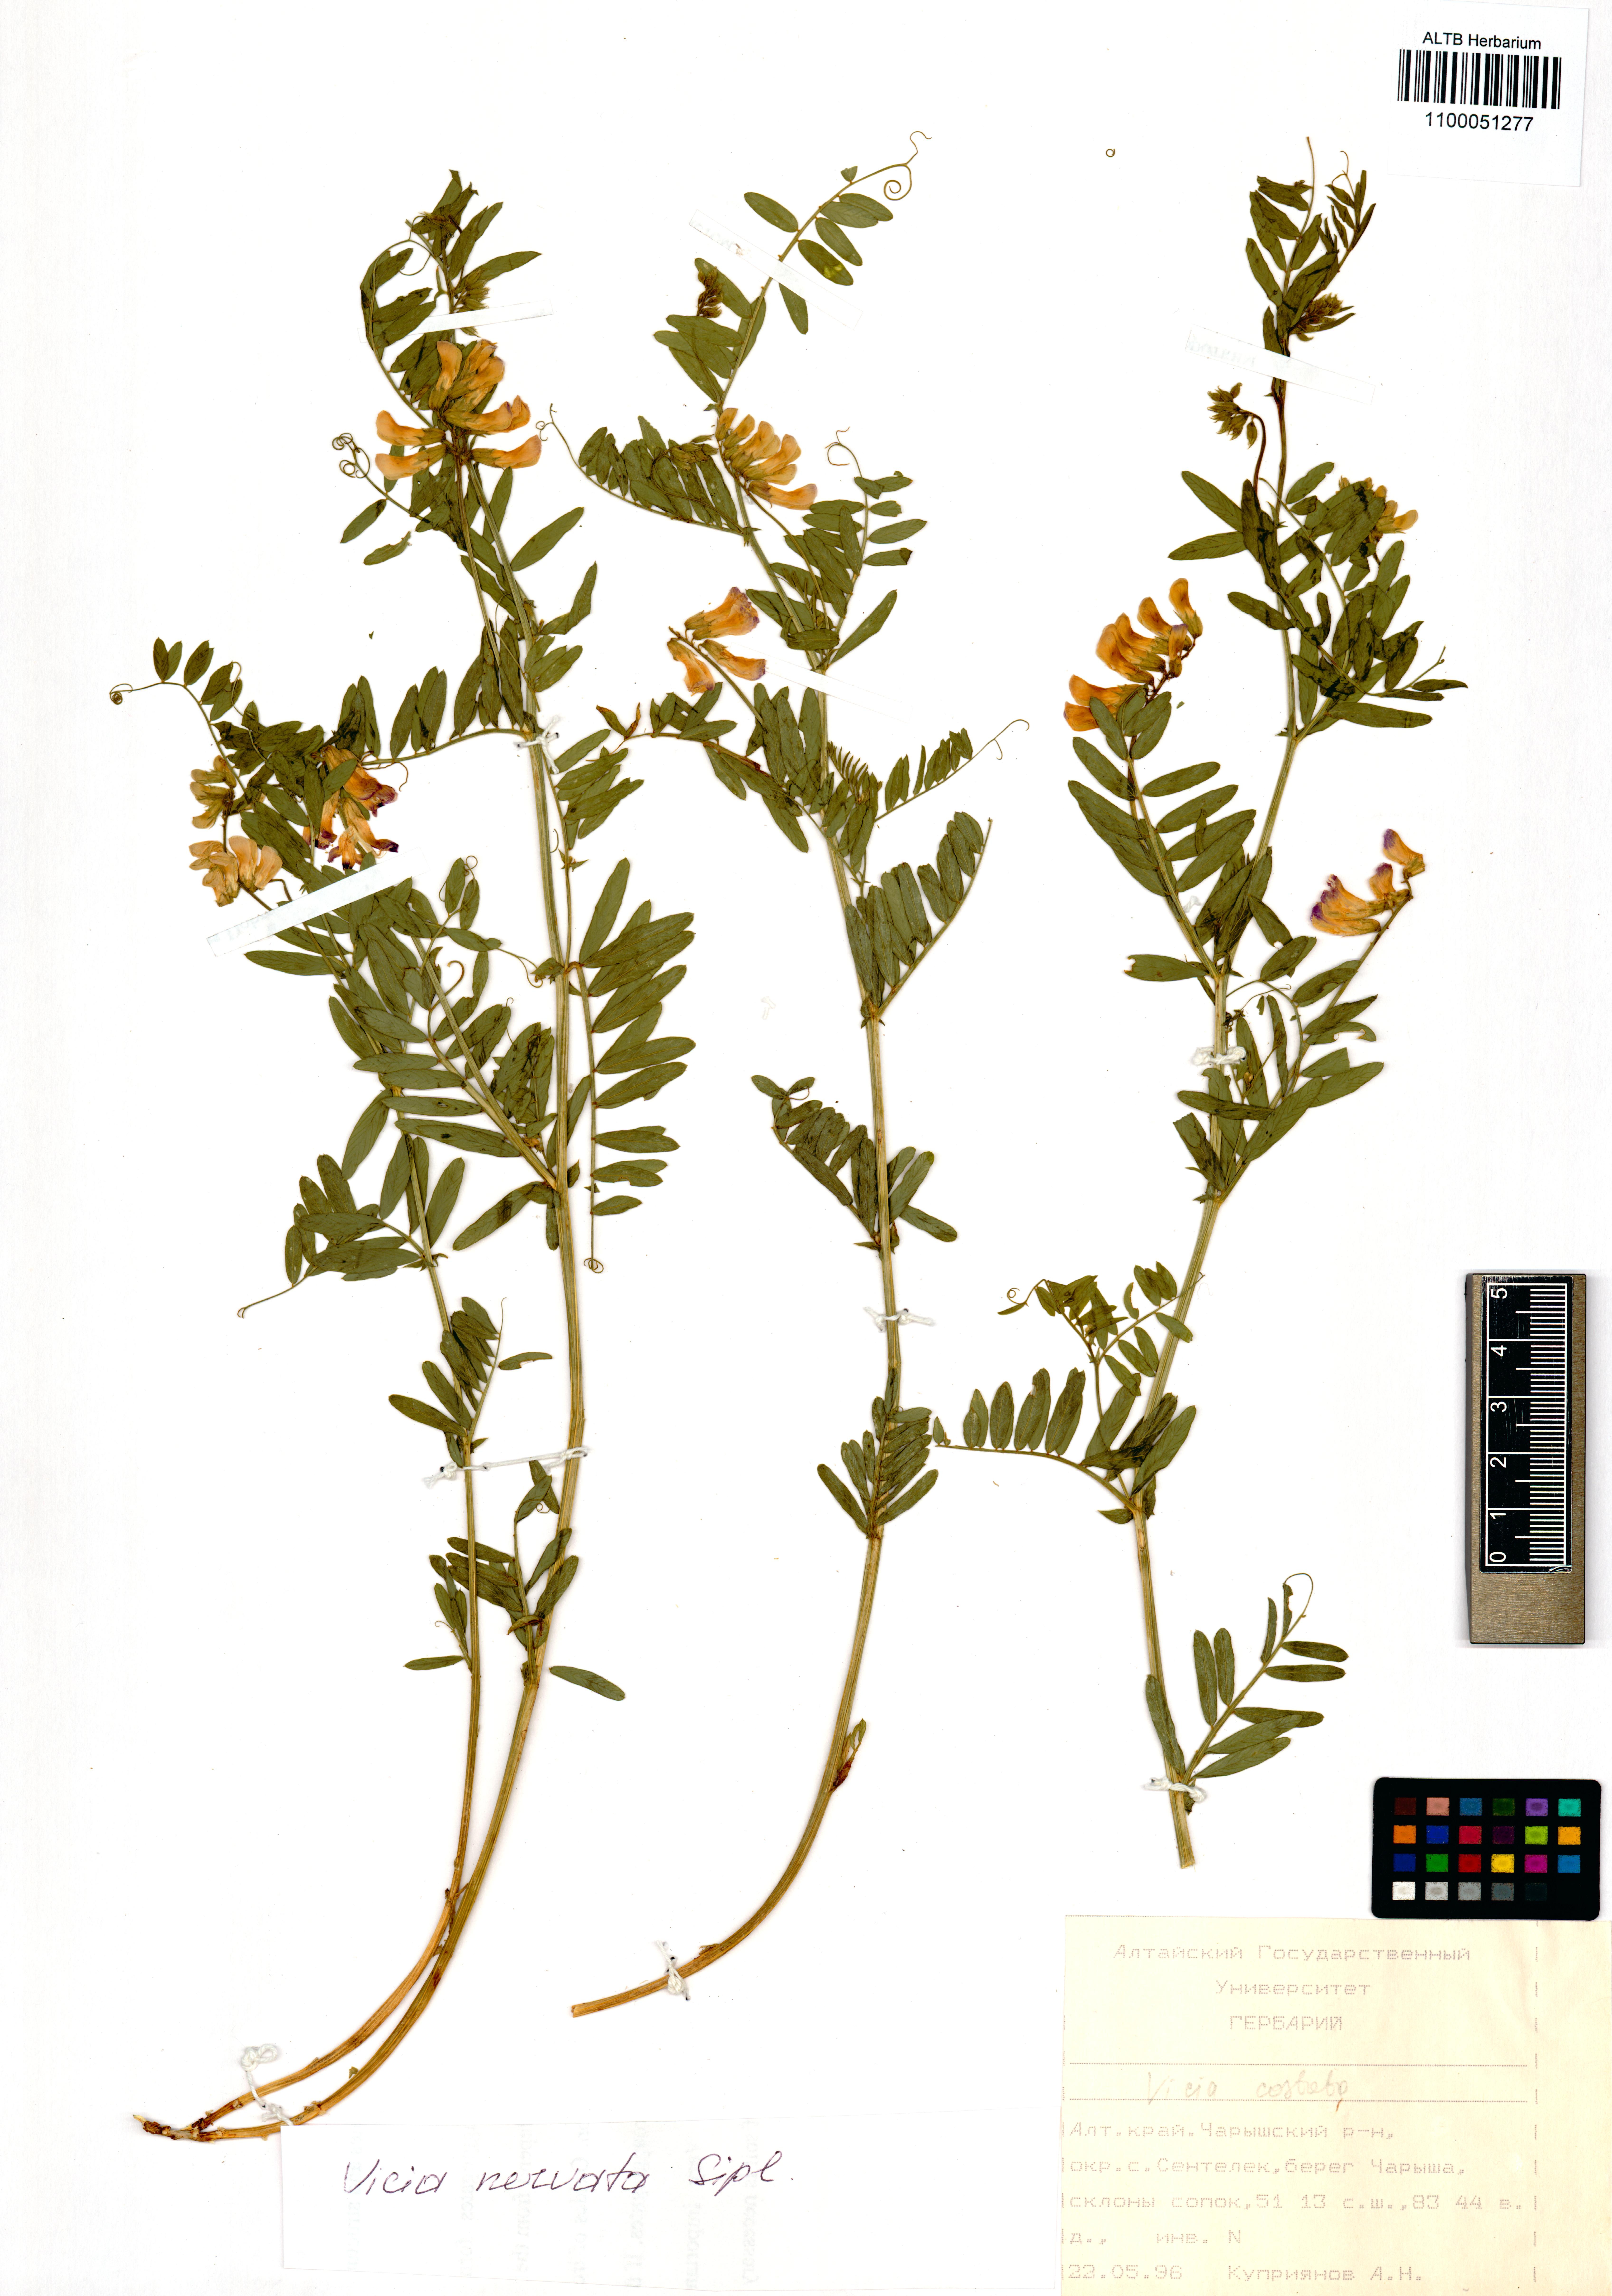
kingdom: Plantae
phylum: Tracheophyta
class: Magnoliopsida
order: Fabales
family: Fabaceae
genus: Vicia
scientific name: Vicia multicaulis
